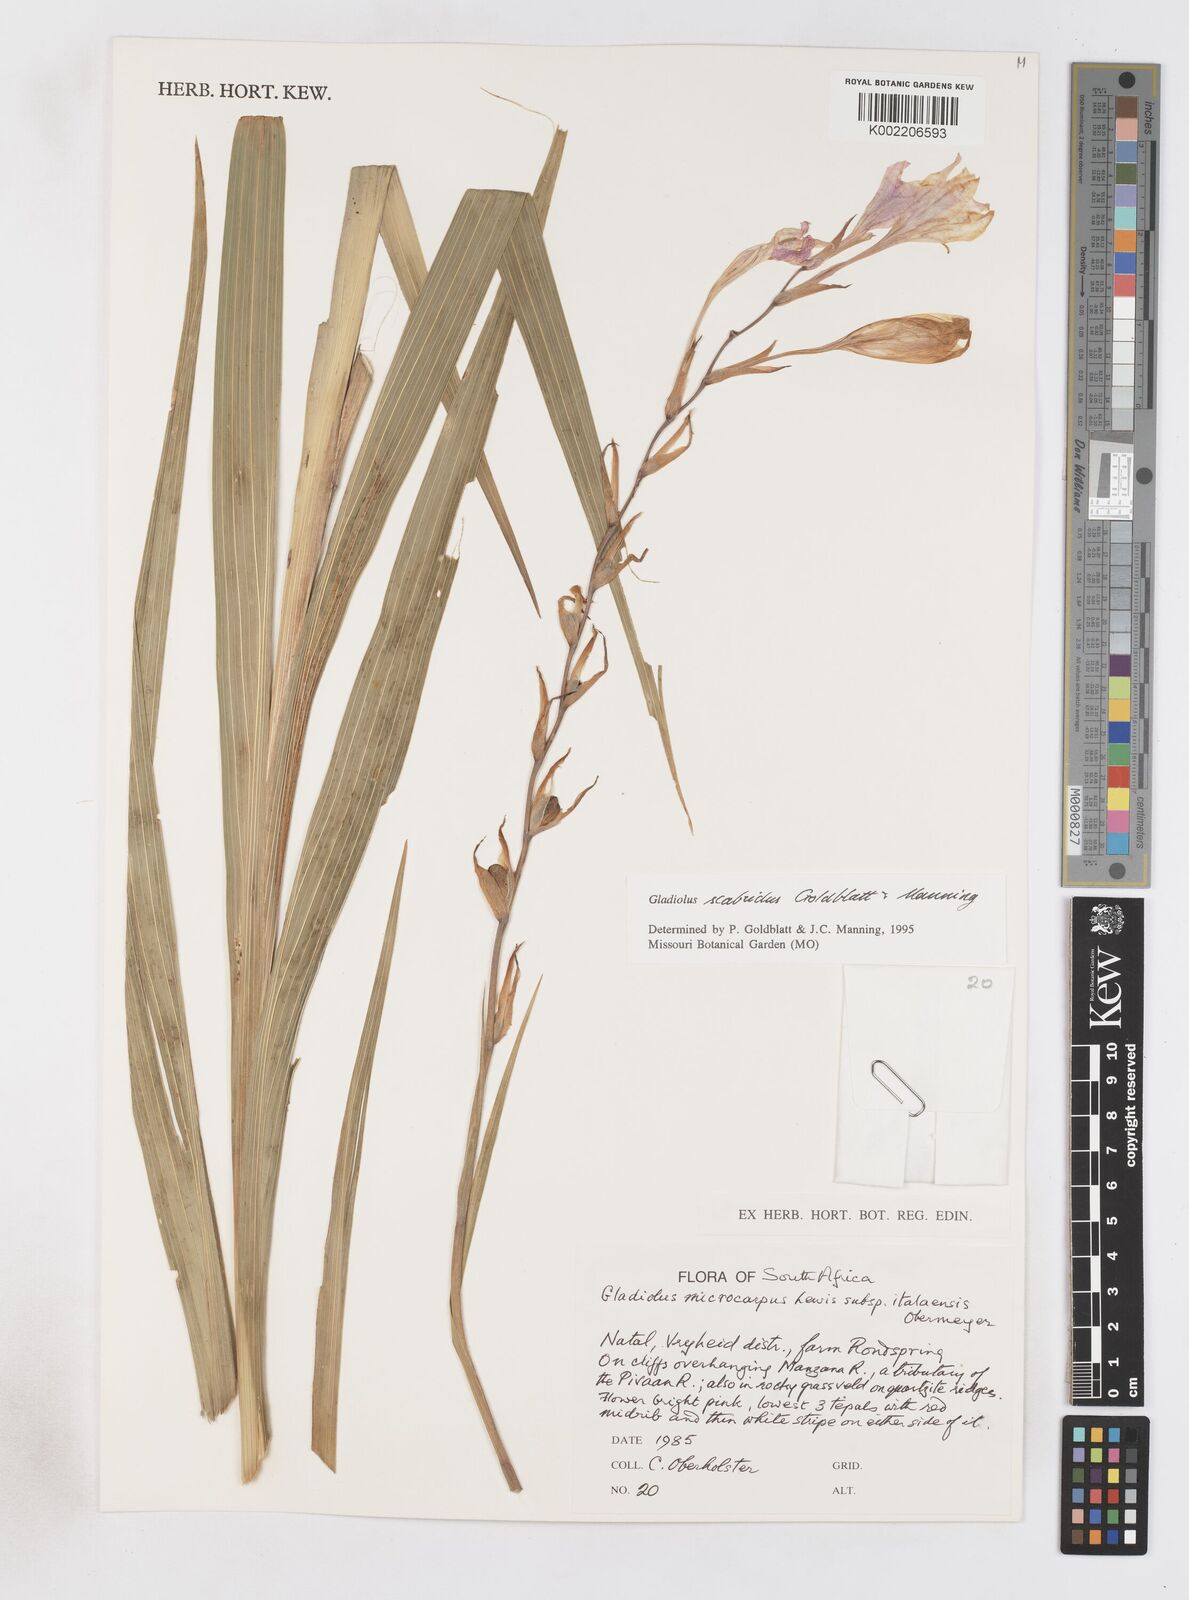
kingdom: Plantae
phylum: Tracheophyta
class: Liliopsida
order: Asparagales
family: Iridaceae
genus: Gladiolus
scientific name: Gladiolus scabridus
